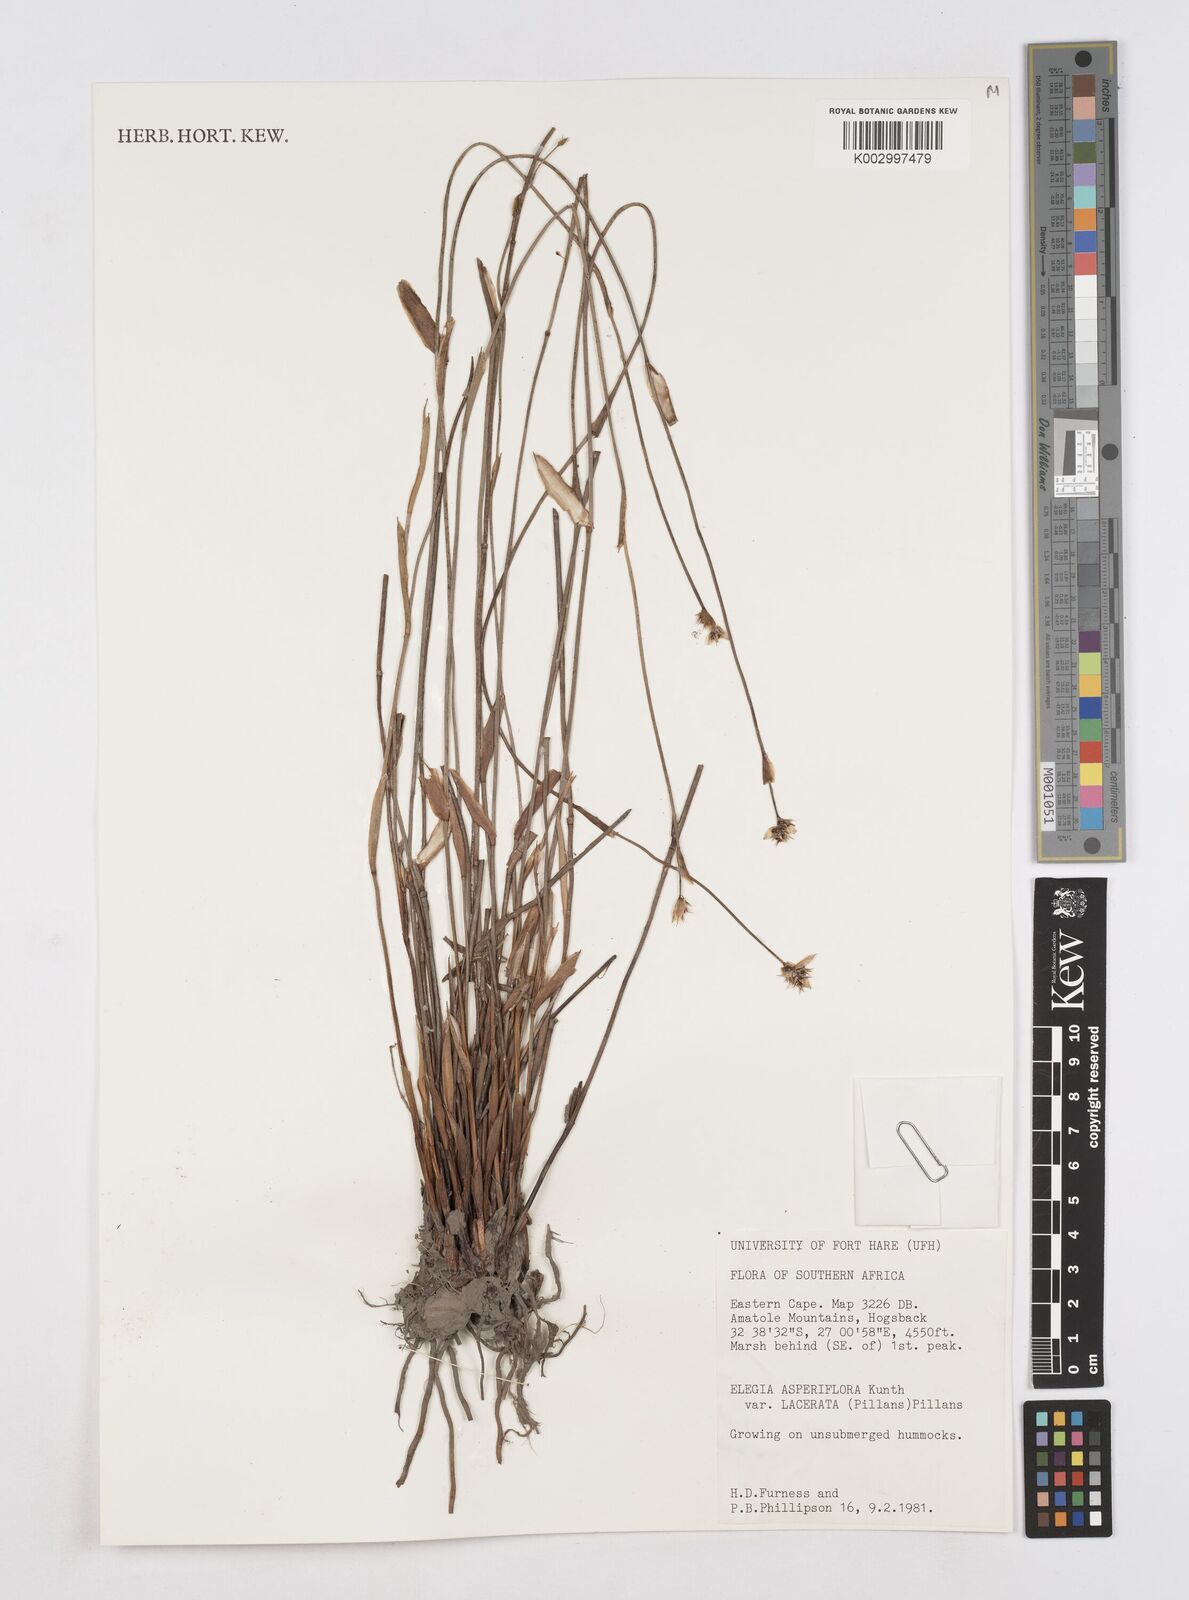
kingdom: Plantae
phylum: Tracheophyta
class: Liliopsida
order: Poales
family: Restionaceae
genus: Elegia
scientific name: Elegia asperiflora
